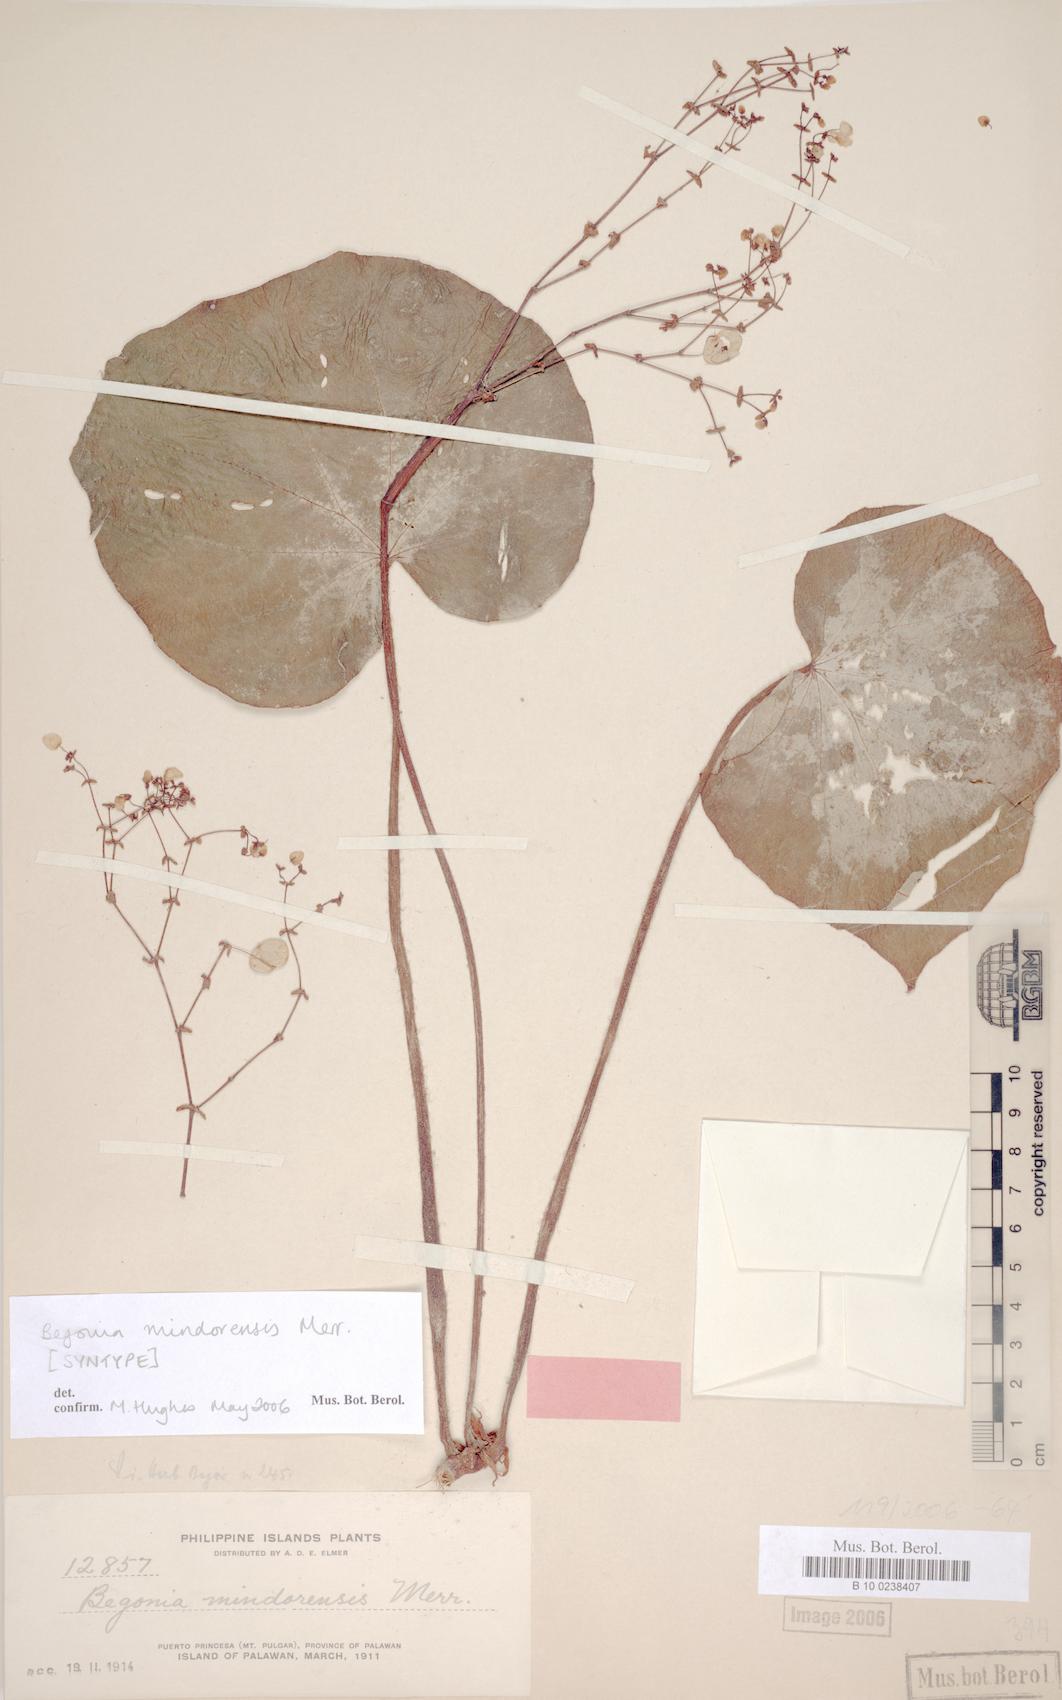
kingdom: Plantae
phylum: Tracheophyta
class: Magnoliopsida
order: Cucurbitales
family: Begoniaceae
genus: Begonia
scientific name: Begonia mindorensis
